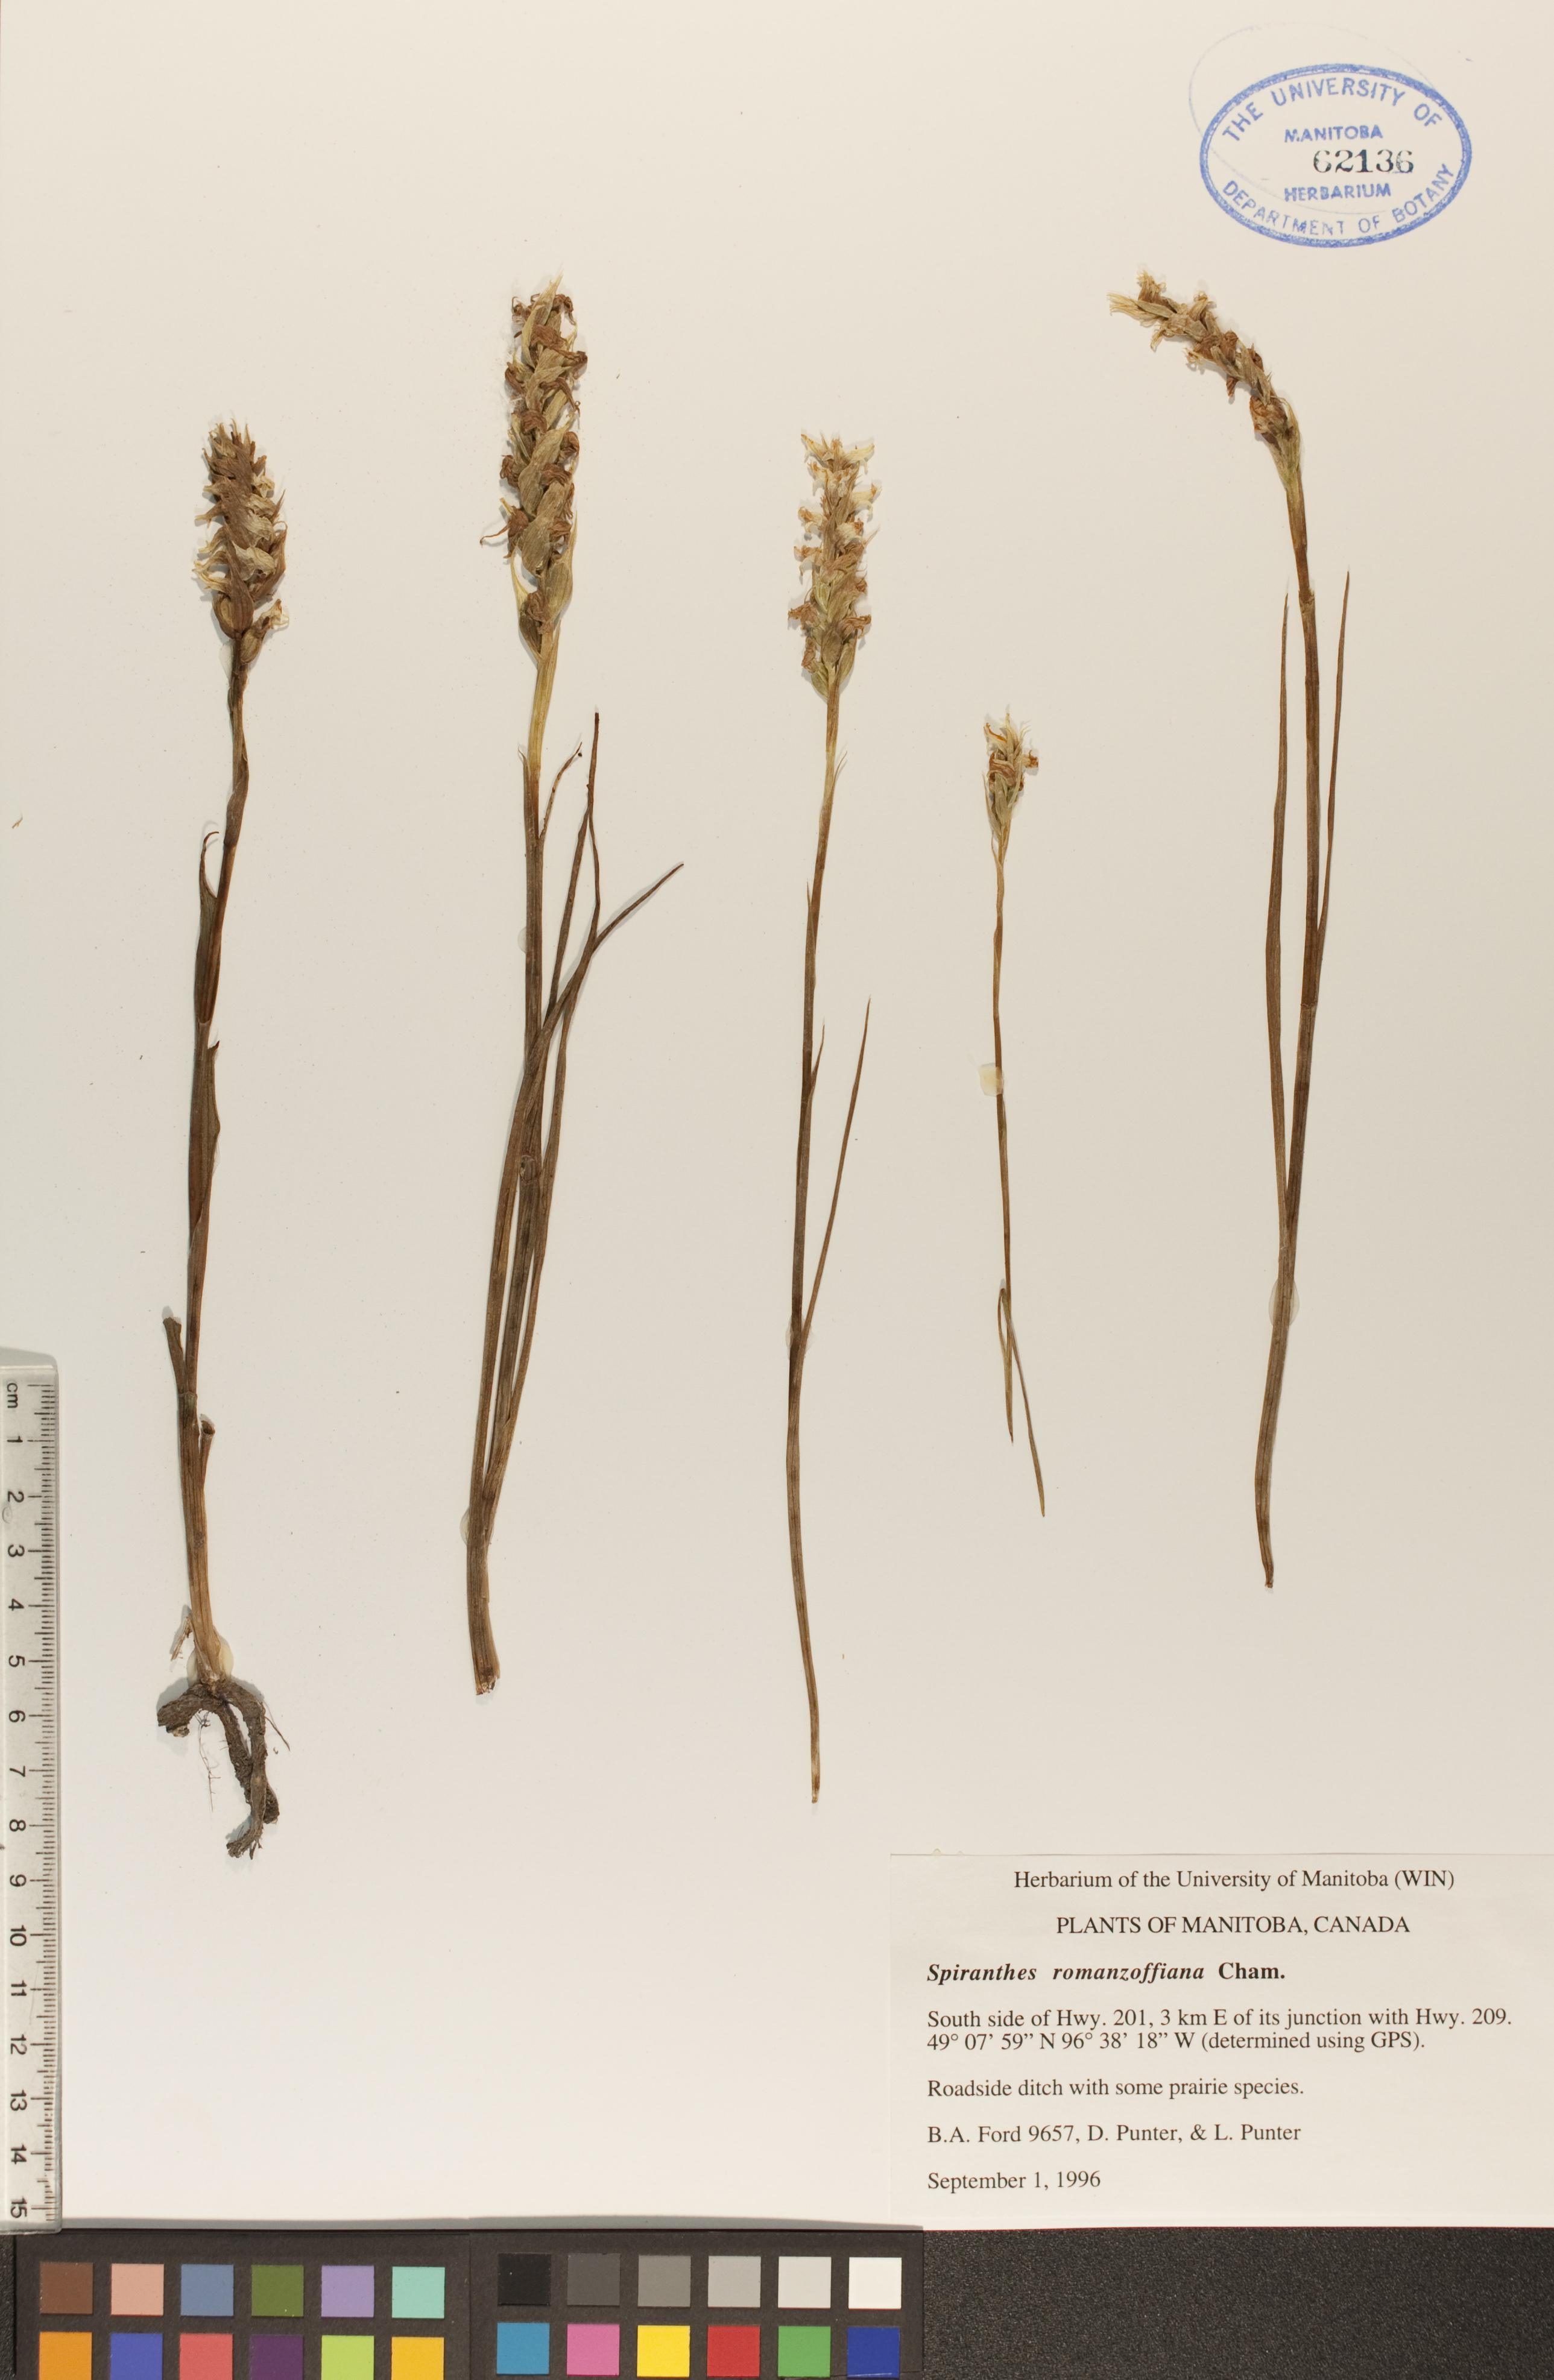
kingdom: Plantae
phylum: Tracheophyta
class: Liliopsida
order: Asparagales
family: Orchidaceae
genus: Spiranthes
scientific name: Spiranthes romanzoffiana
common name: Irish lady's-tresses
